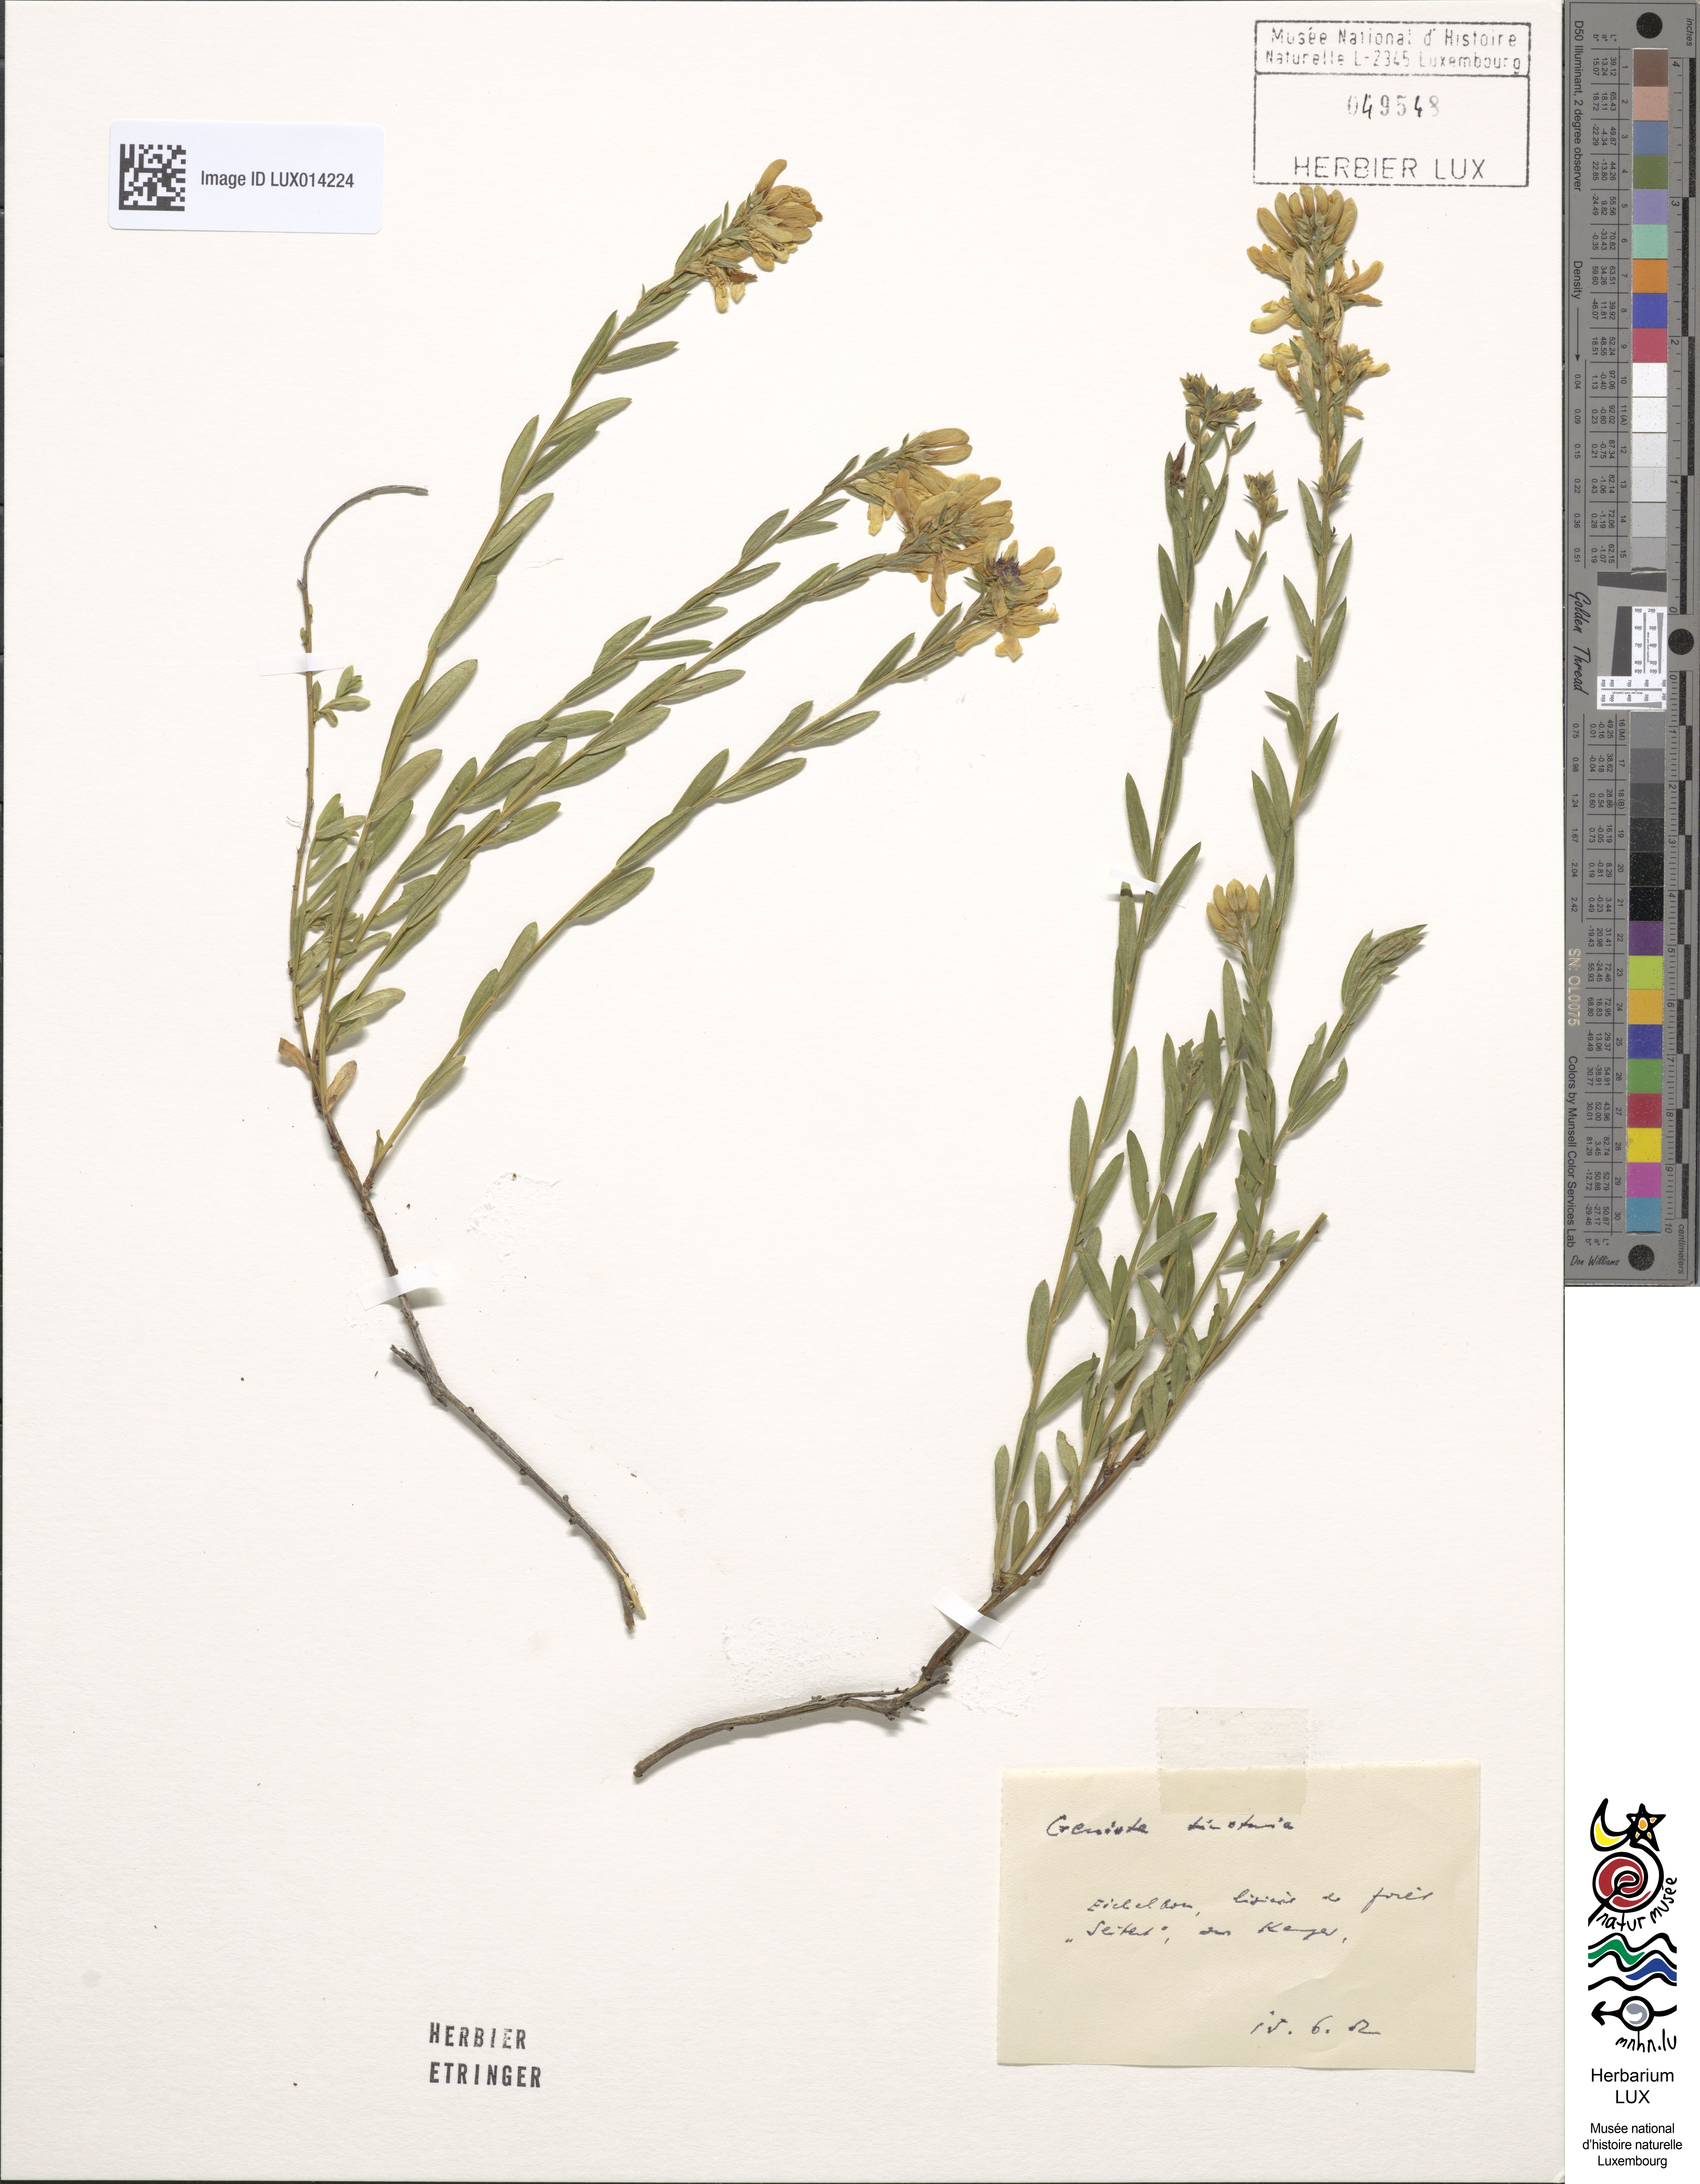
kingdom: Plantae
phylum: Tracheophyta
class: Magnoliopsida
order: Fabales
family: Fabaceae
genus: Genista
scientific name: Genista tinctoria
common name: Dyer's greenweed
